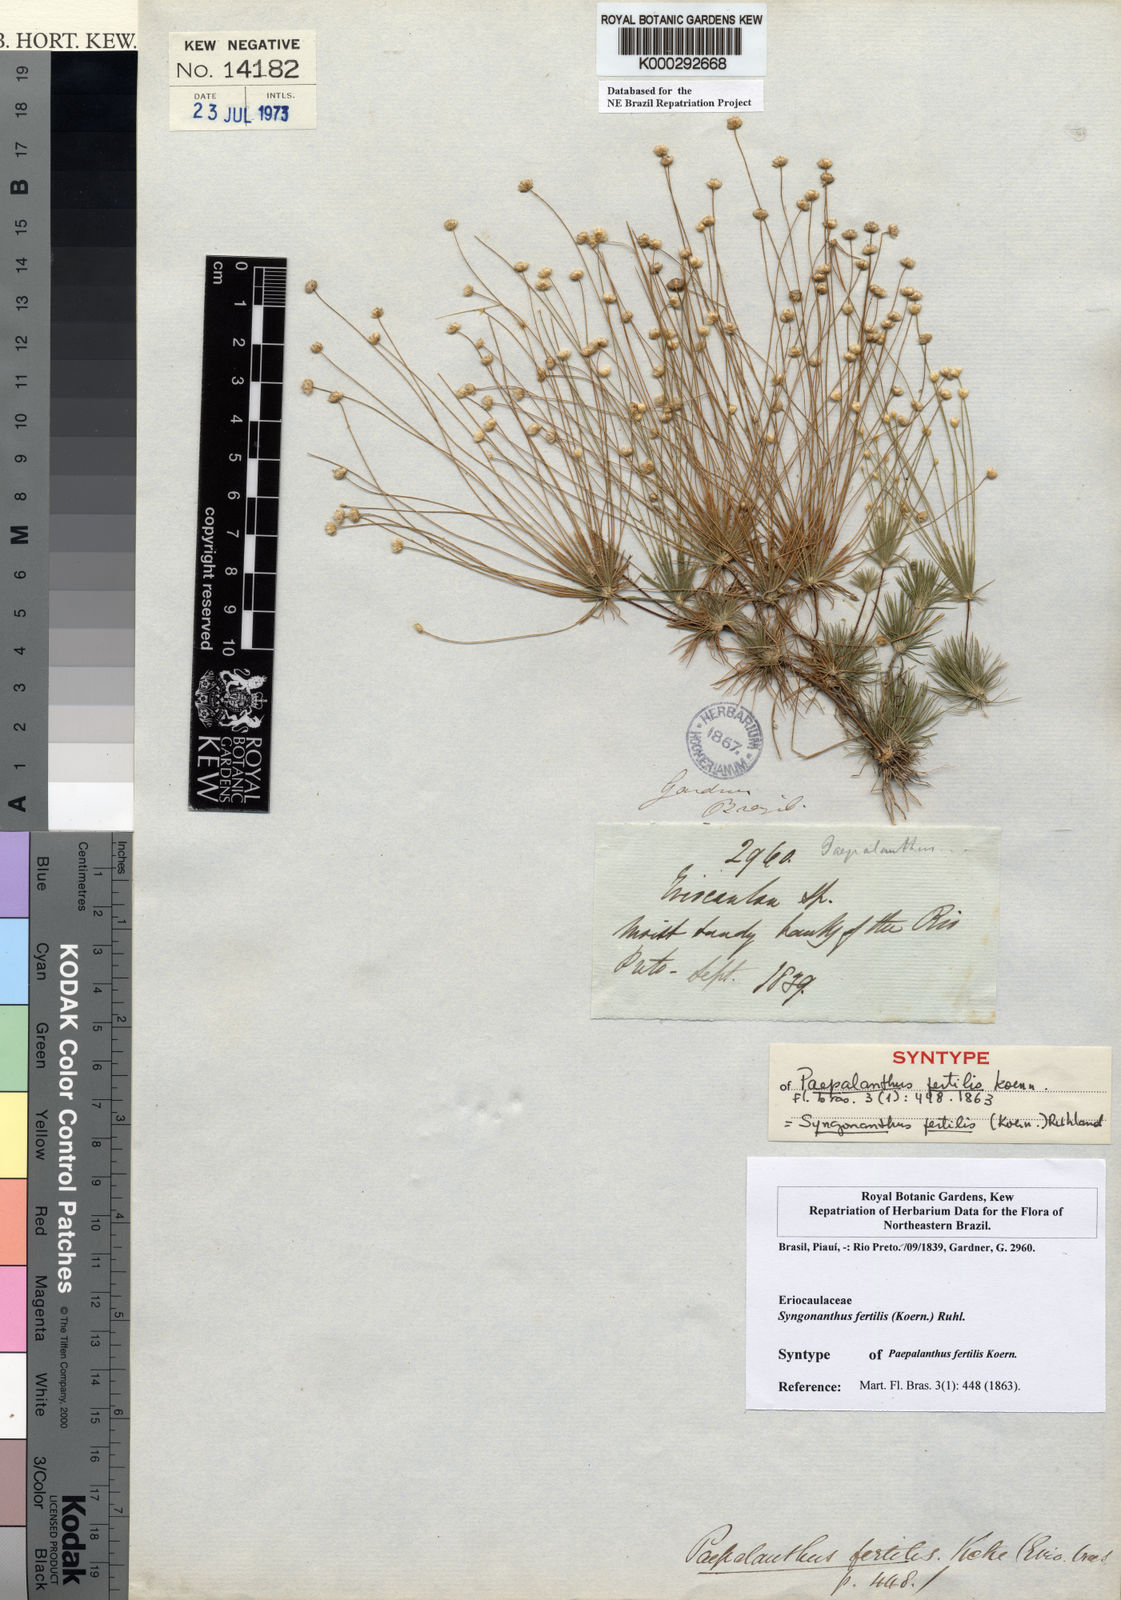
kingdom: Plantae
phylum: Tracheophyta
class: Liliopsida
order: Poales
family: Eriocaulaceae
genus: Syngonanthus
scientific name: Syngonanthus humboldtii
